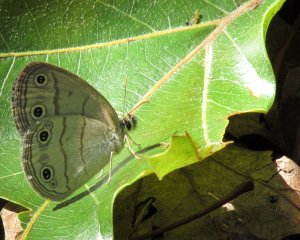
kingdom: Animalia
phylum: Arthropoda
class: Insecta
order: Lepidoptera
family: Nymphalidae
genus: Euptychia
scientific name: Euptychia cymela
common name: Little Wood Satyr
